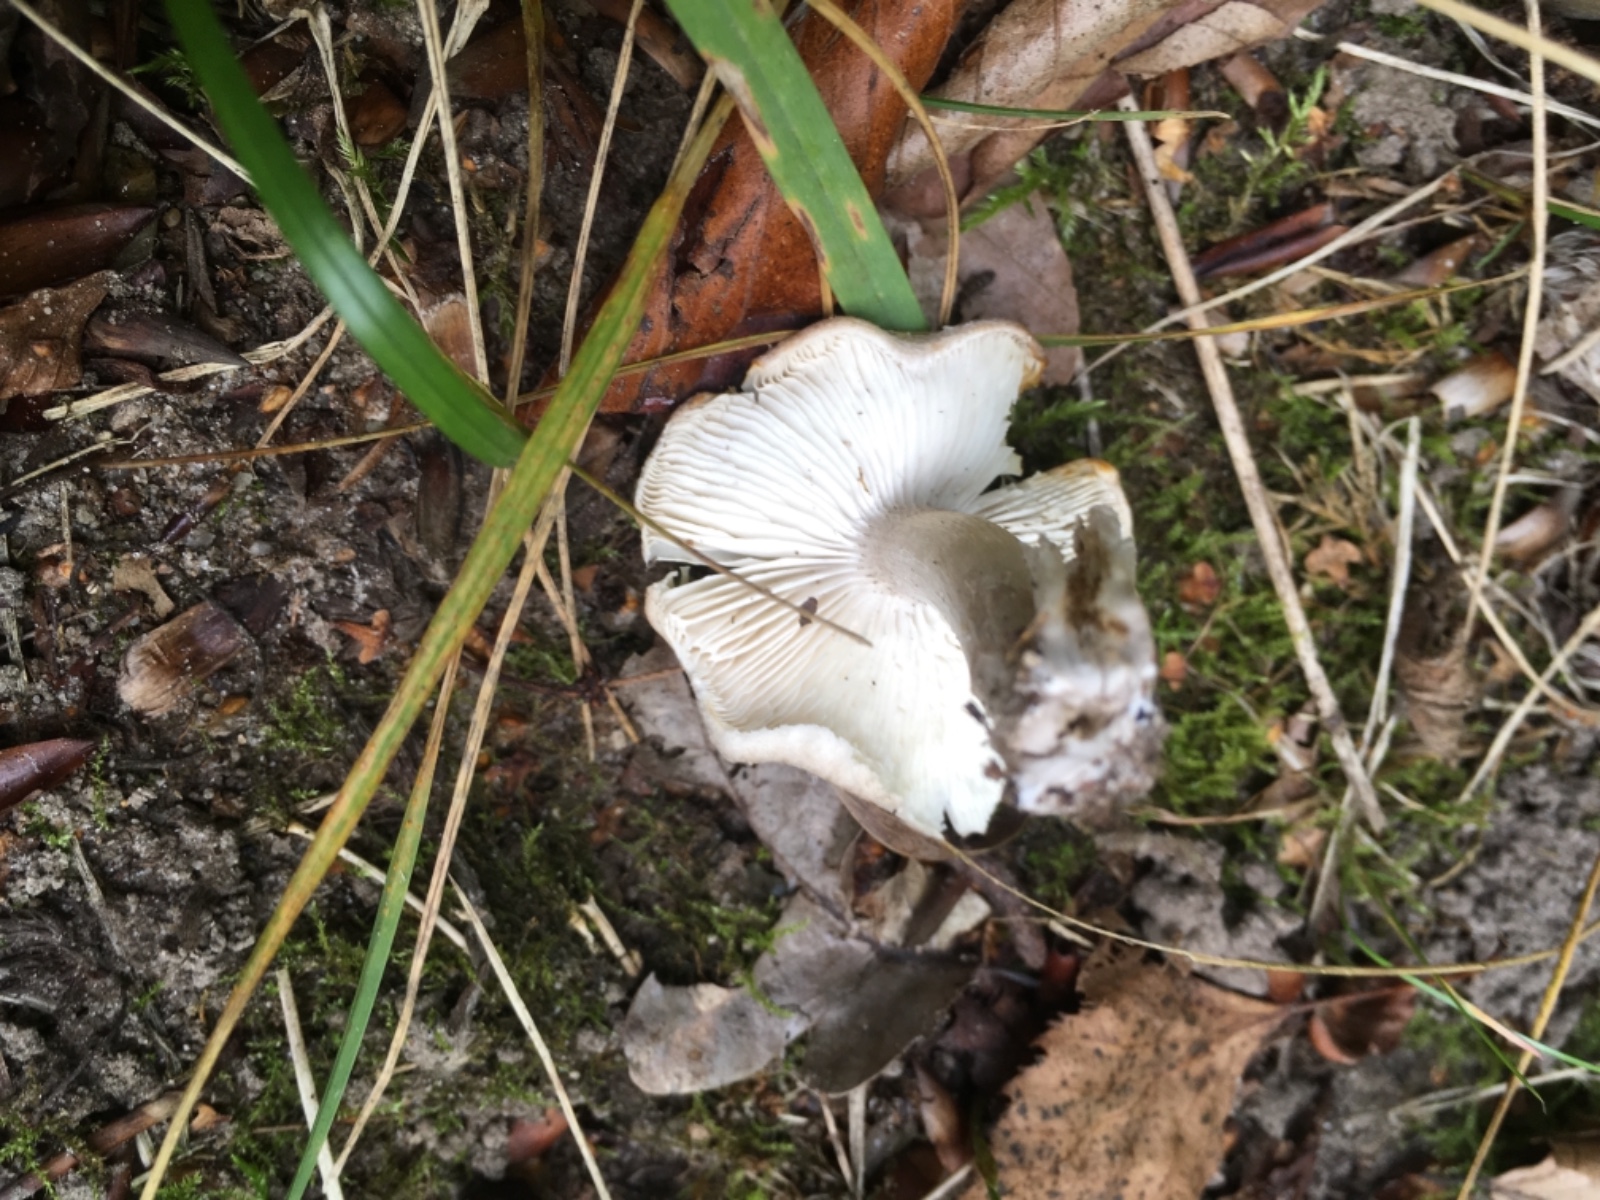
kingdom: Fungi
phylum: Basidiomycota
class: Agaricomycetes
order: Agaricales
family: Tricholomataceae
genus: Tricholoma
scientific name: Tricholoma
